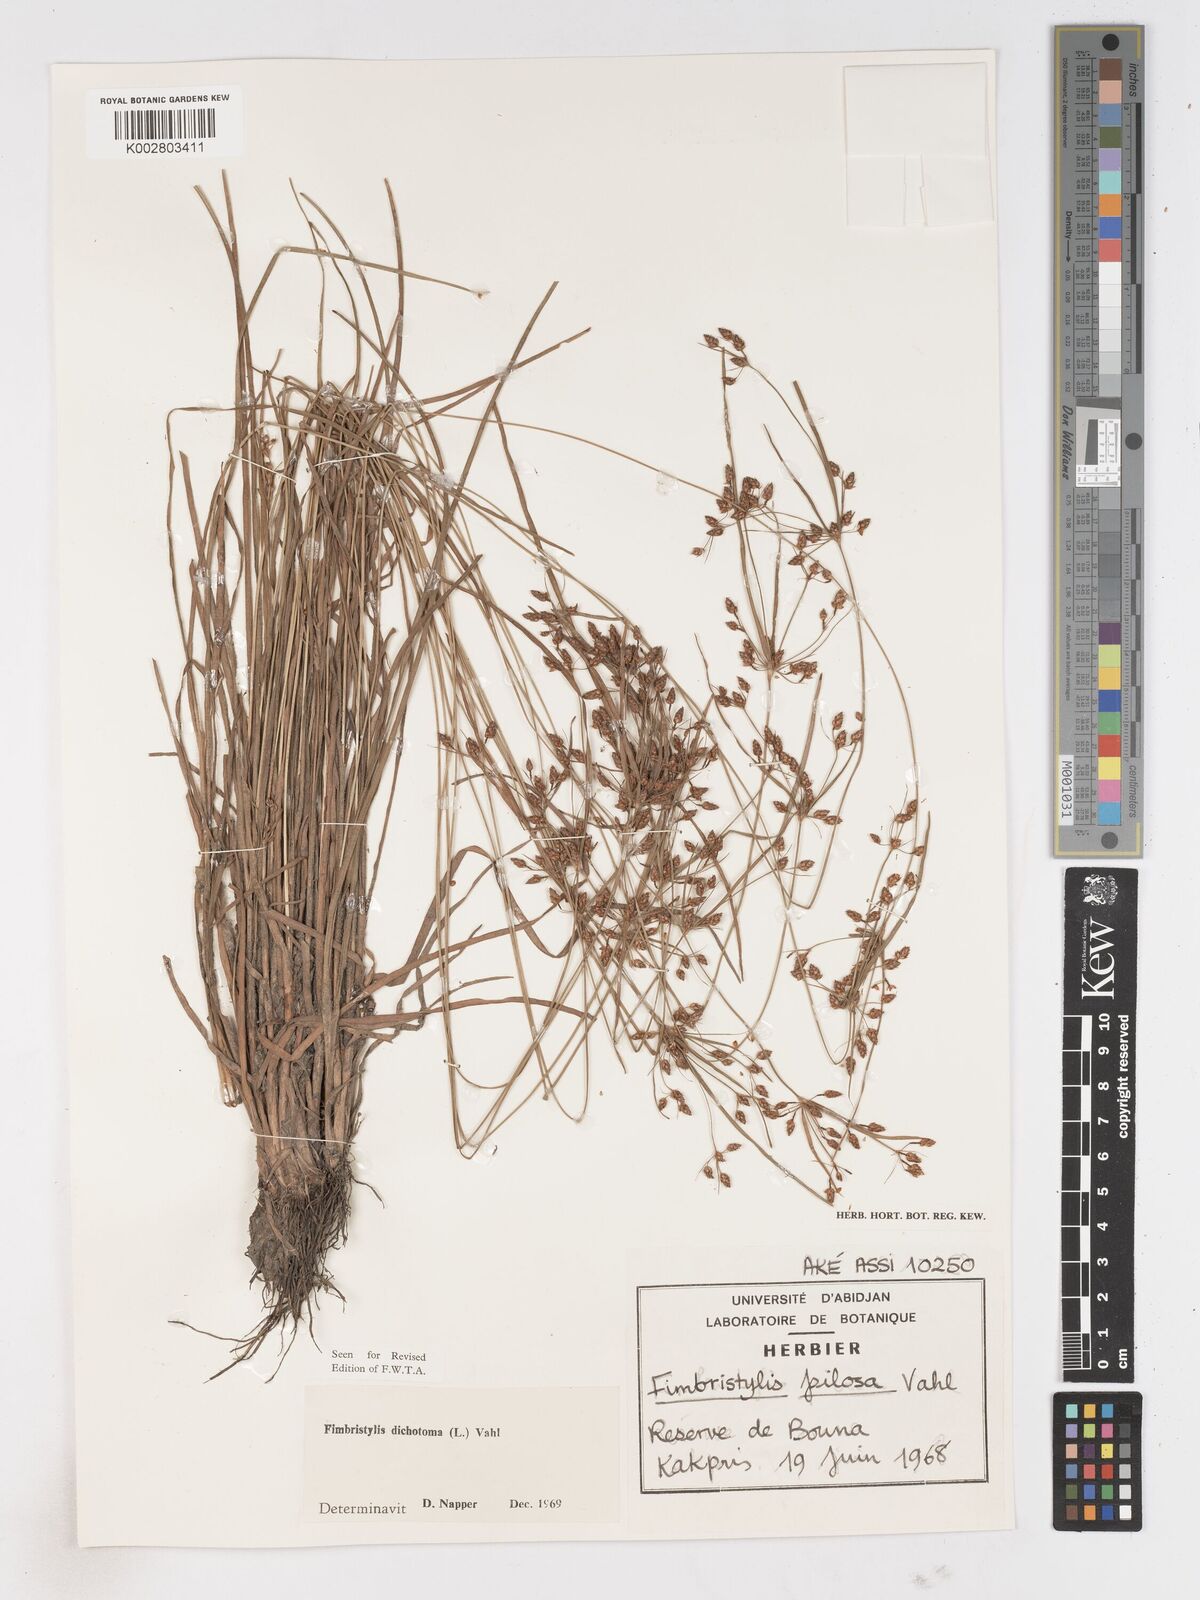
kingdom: Plantae
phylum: Tracheophyta
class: Liliopsida
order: Poales
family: Cyperaceae
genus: Fimbristylis
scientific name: Fimbristylis dichotoma
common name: Forked fimbry
